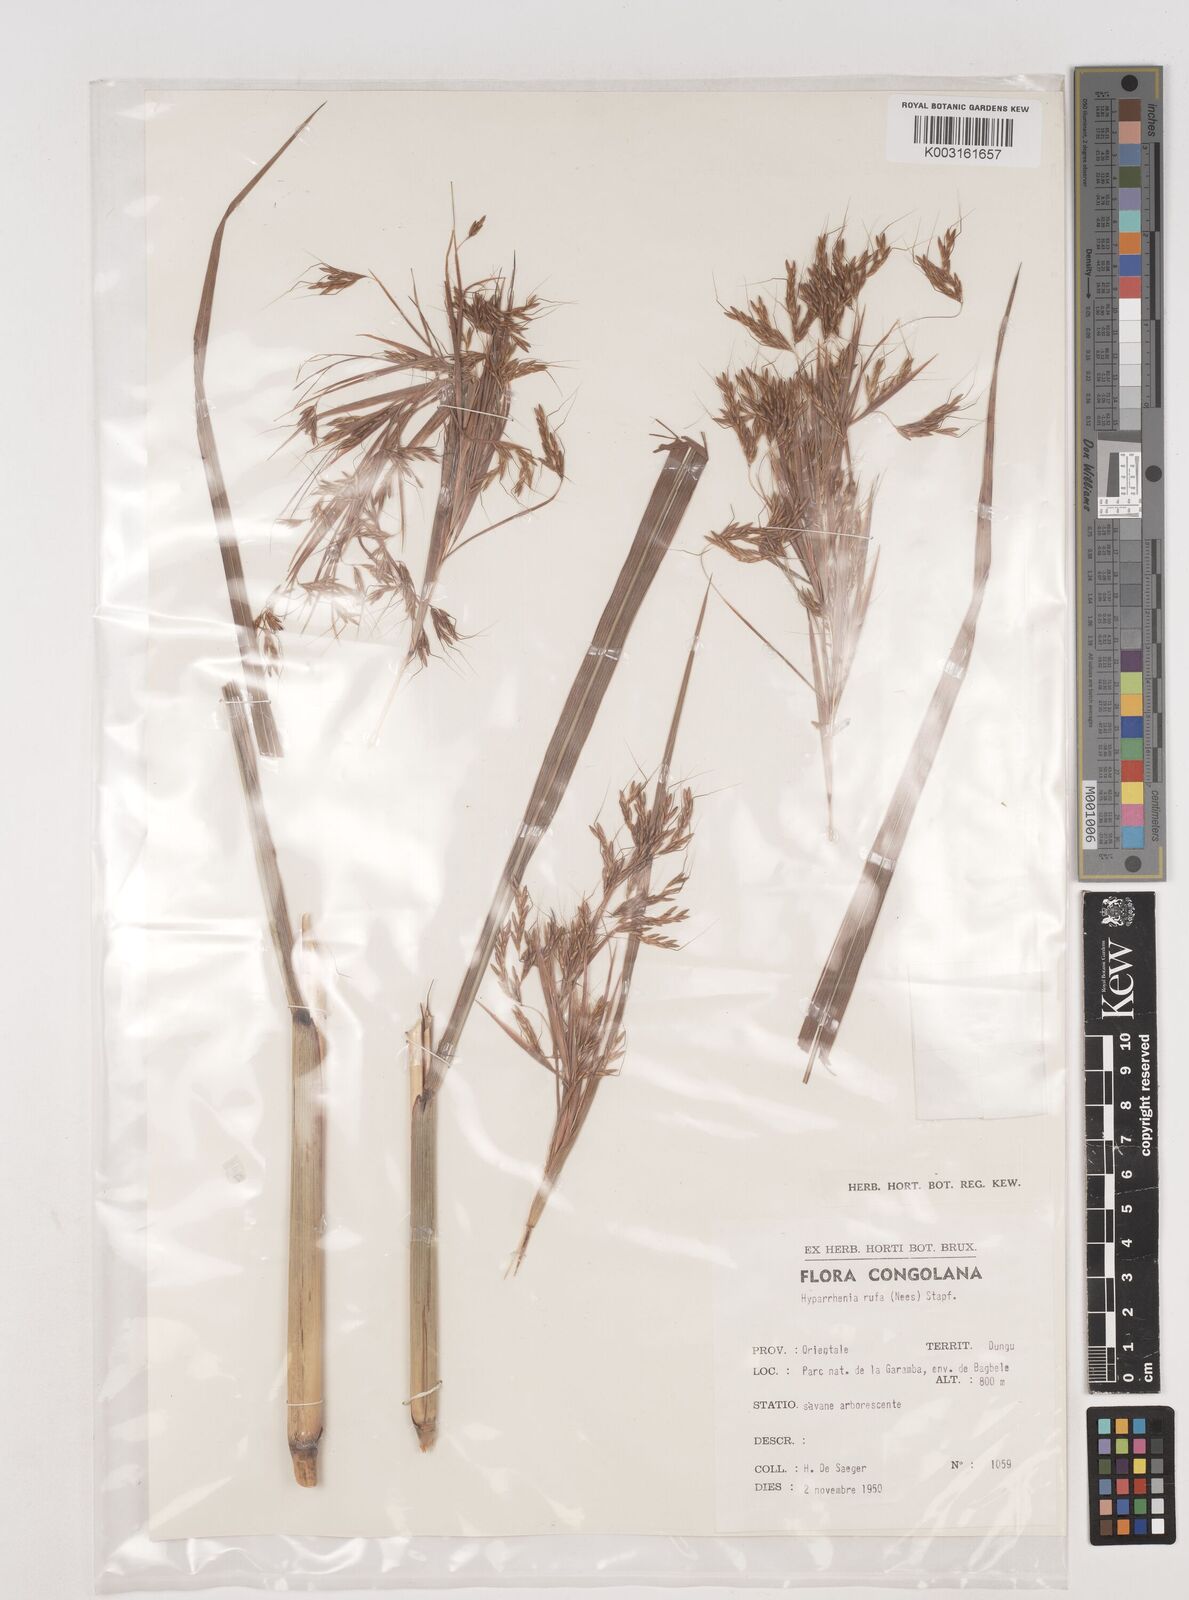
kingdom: Plantae
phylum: Tracheophyta
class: Liliopsida
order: Poales
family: Poaceae
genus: Hyparrhenia
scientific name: Hyparrhenia rufa
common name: Jaraguagrass
